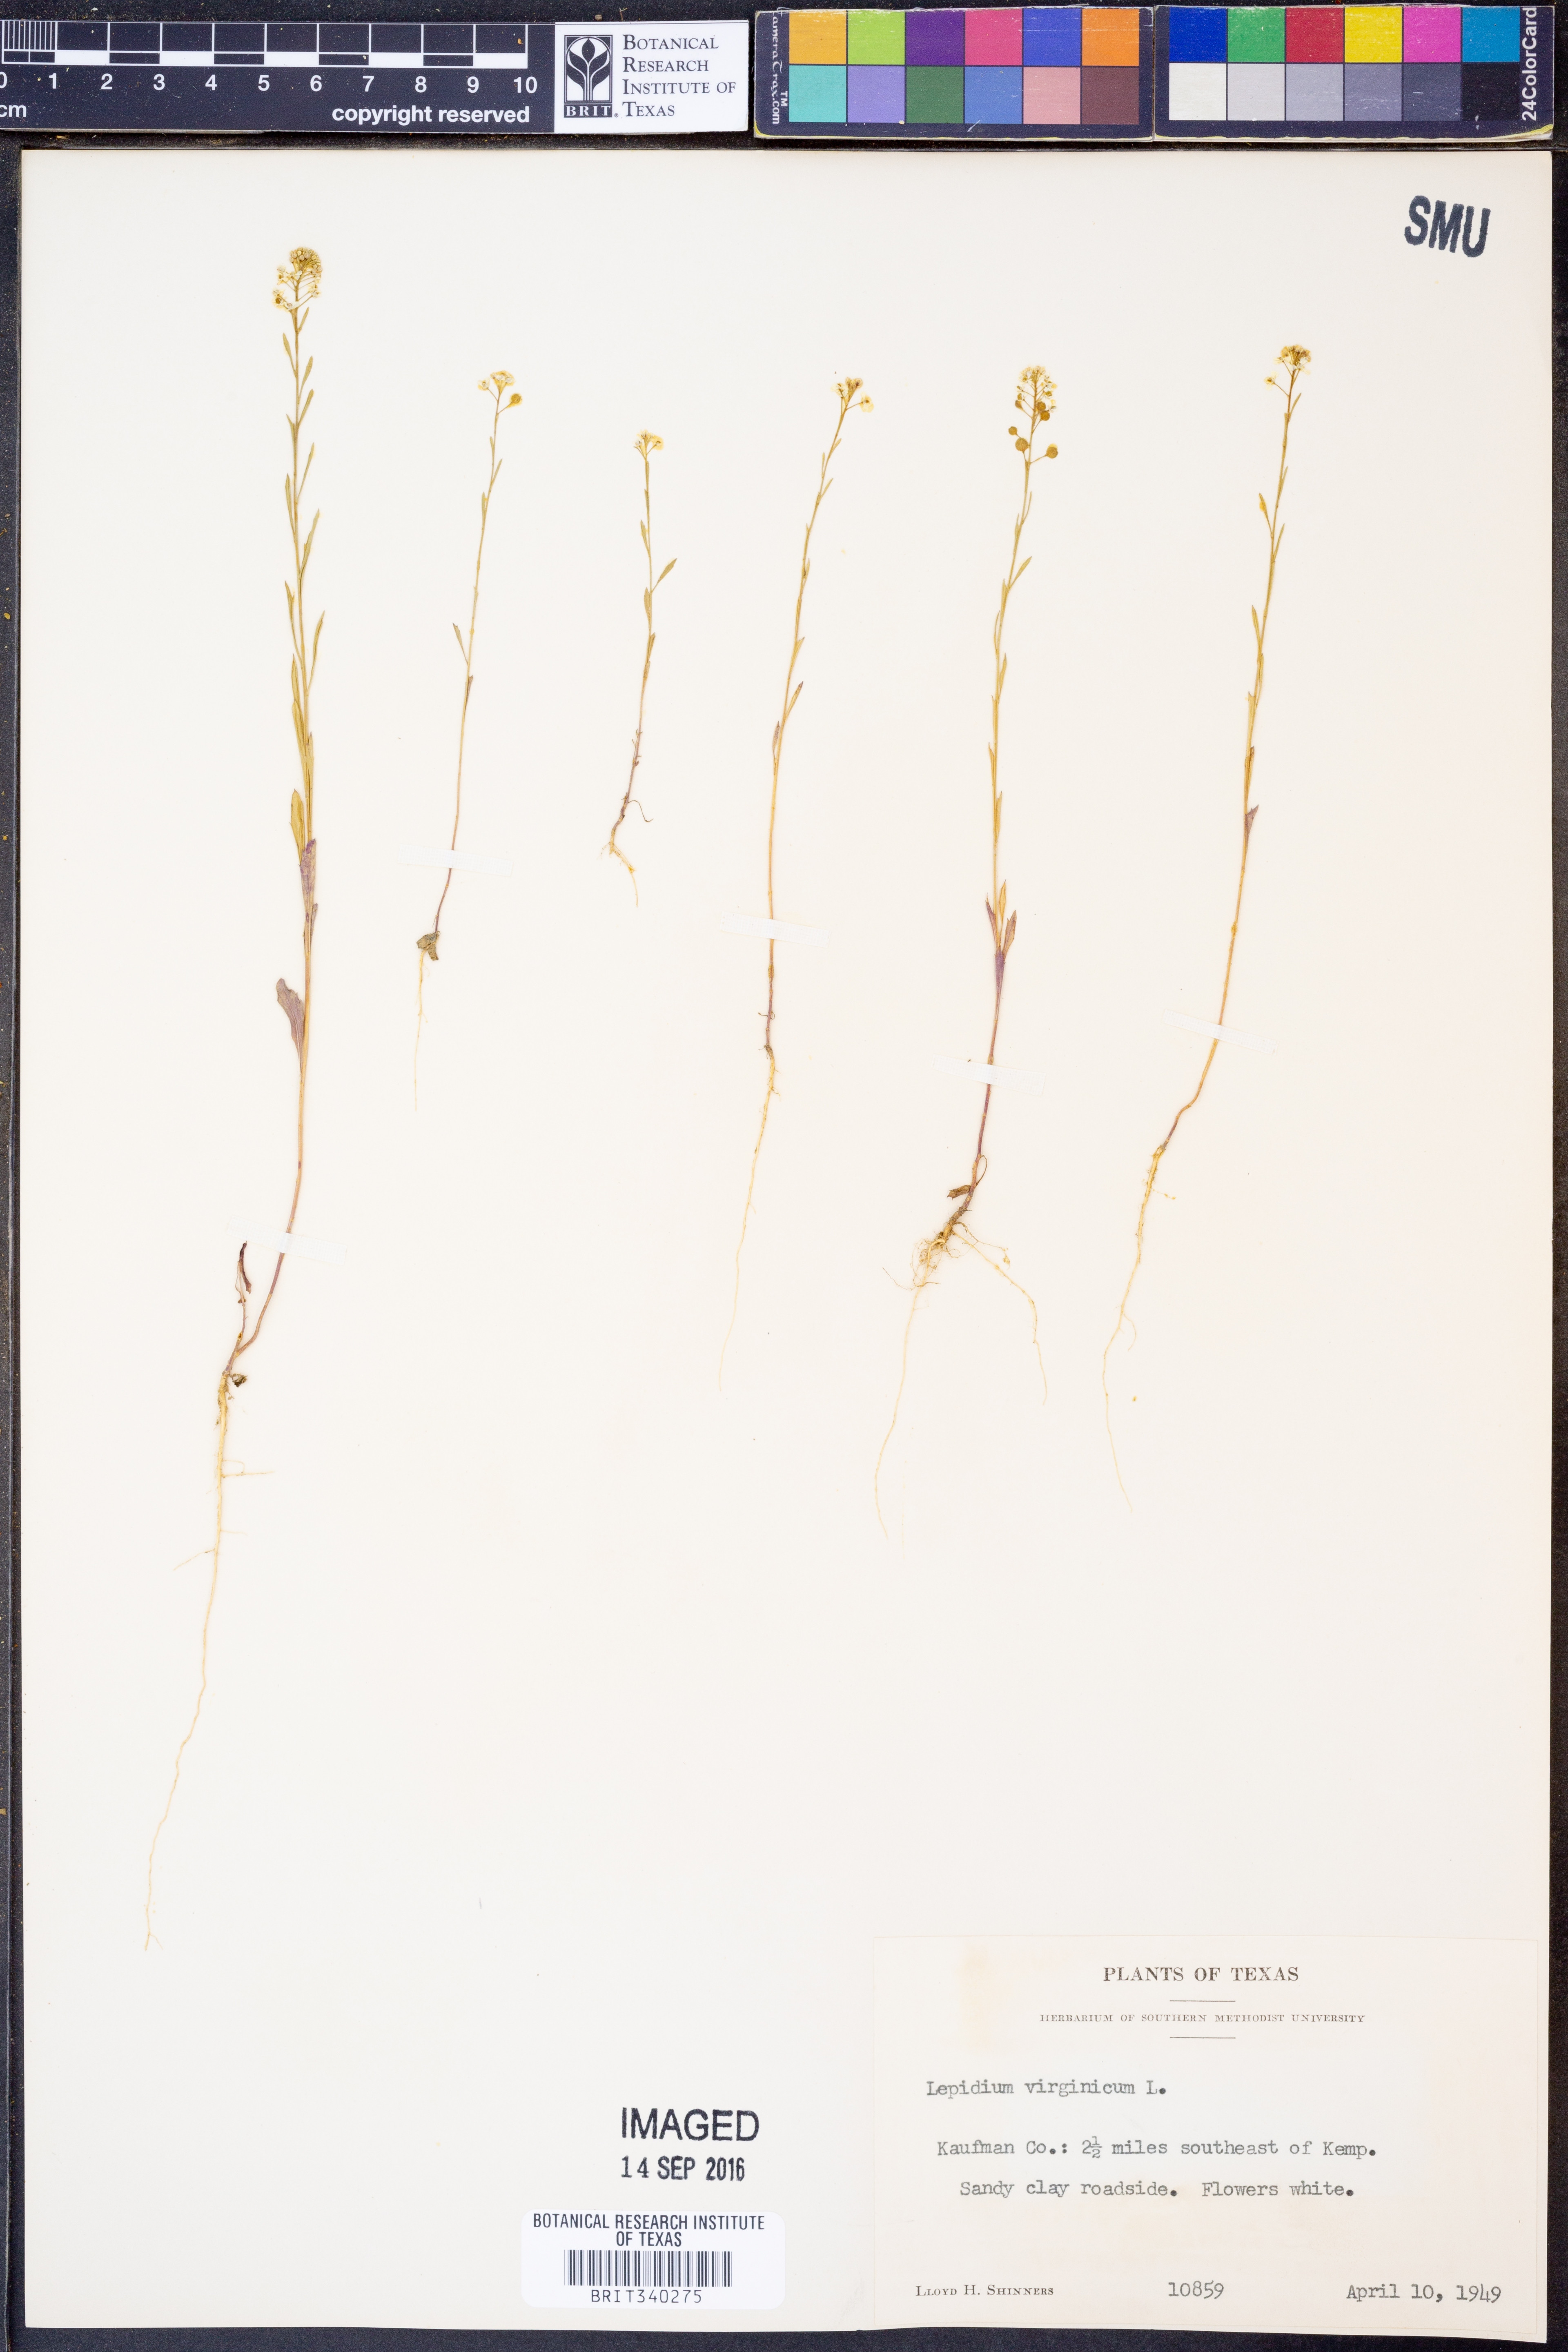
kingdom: Plantae
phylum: Tracheophyta
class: Magnoliopsida
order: Brassicales
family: Brassicaceae
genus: Lepidium
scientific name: Lepidium virginicum
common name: Least pepperwort
